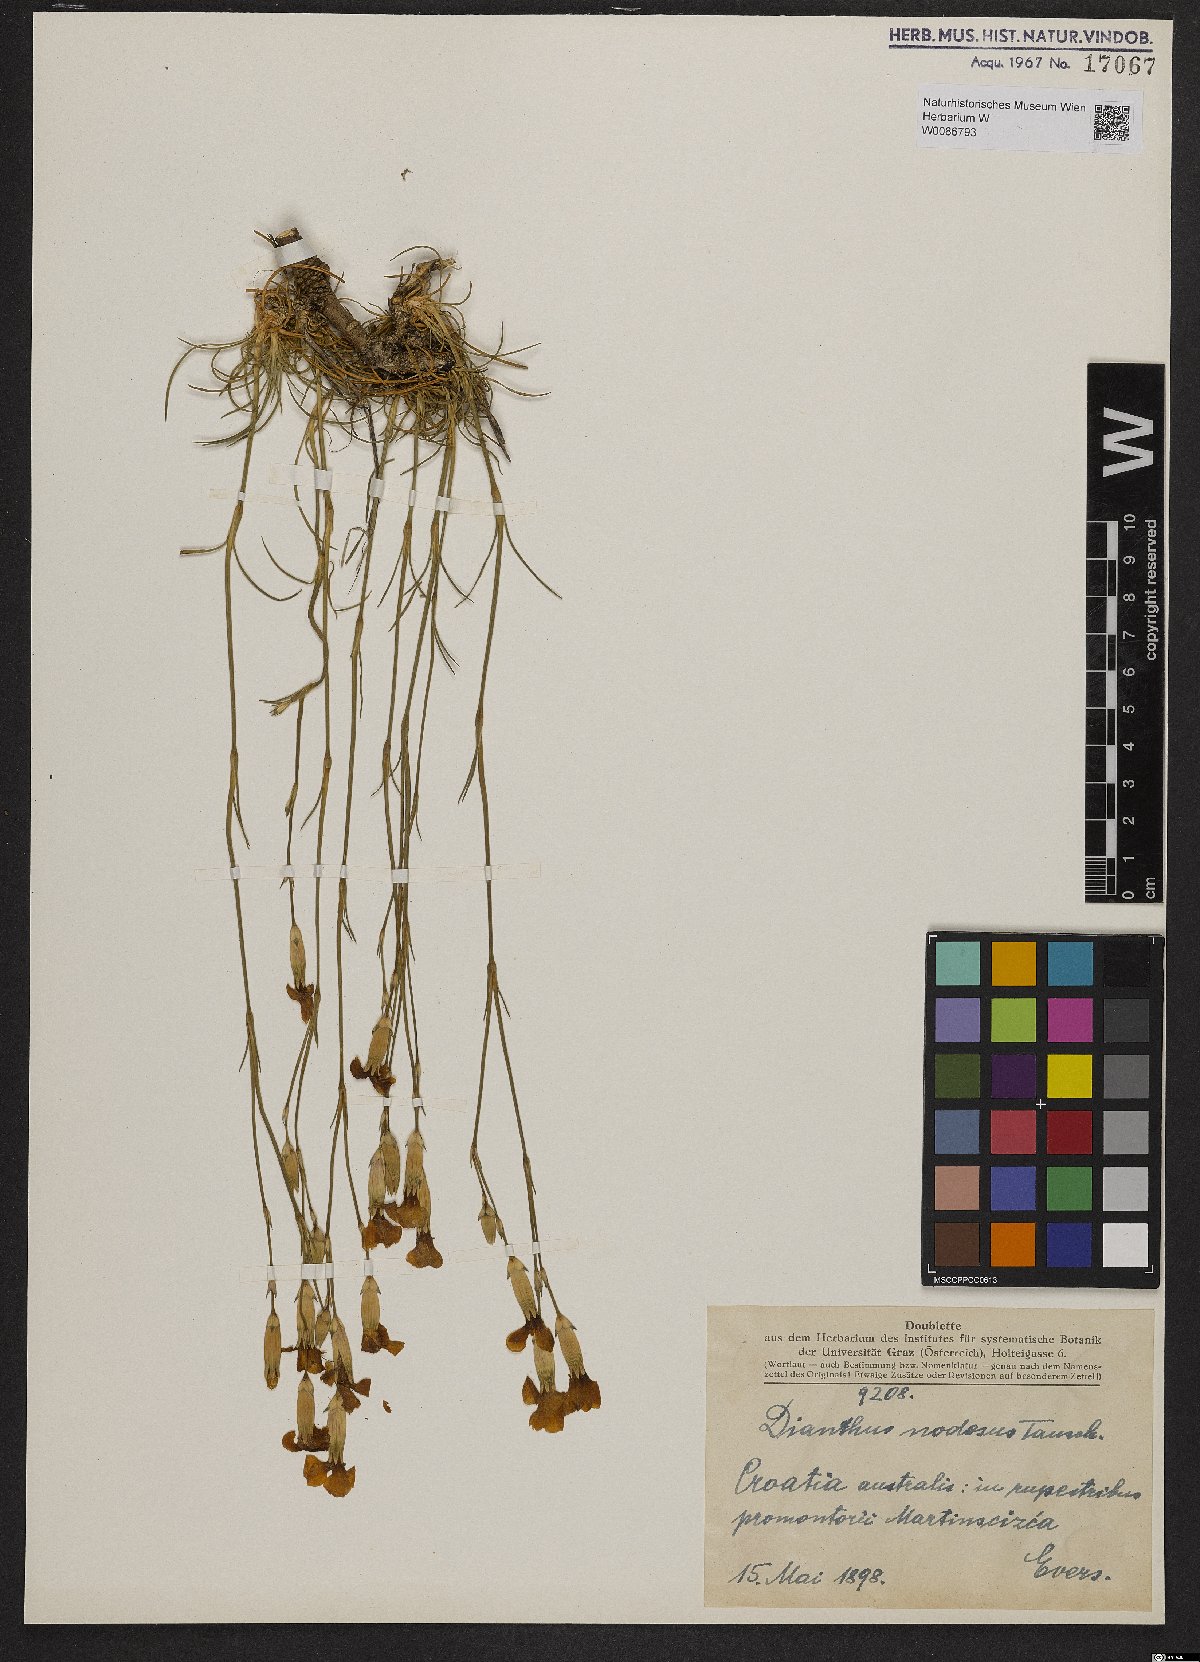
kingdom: Plantae
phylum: Tracheophyta
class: Magnoliopsida
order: Caryophyllales
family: Caryophyllaceae
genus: Dianthus
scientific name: Dianthus sylvestris
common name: Wood pink
